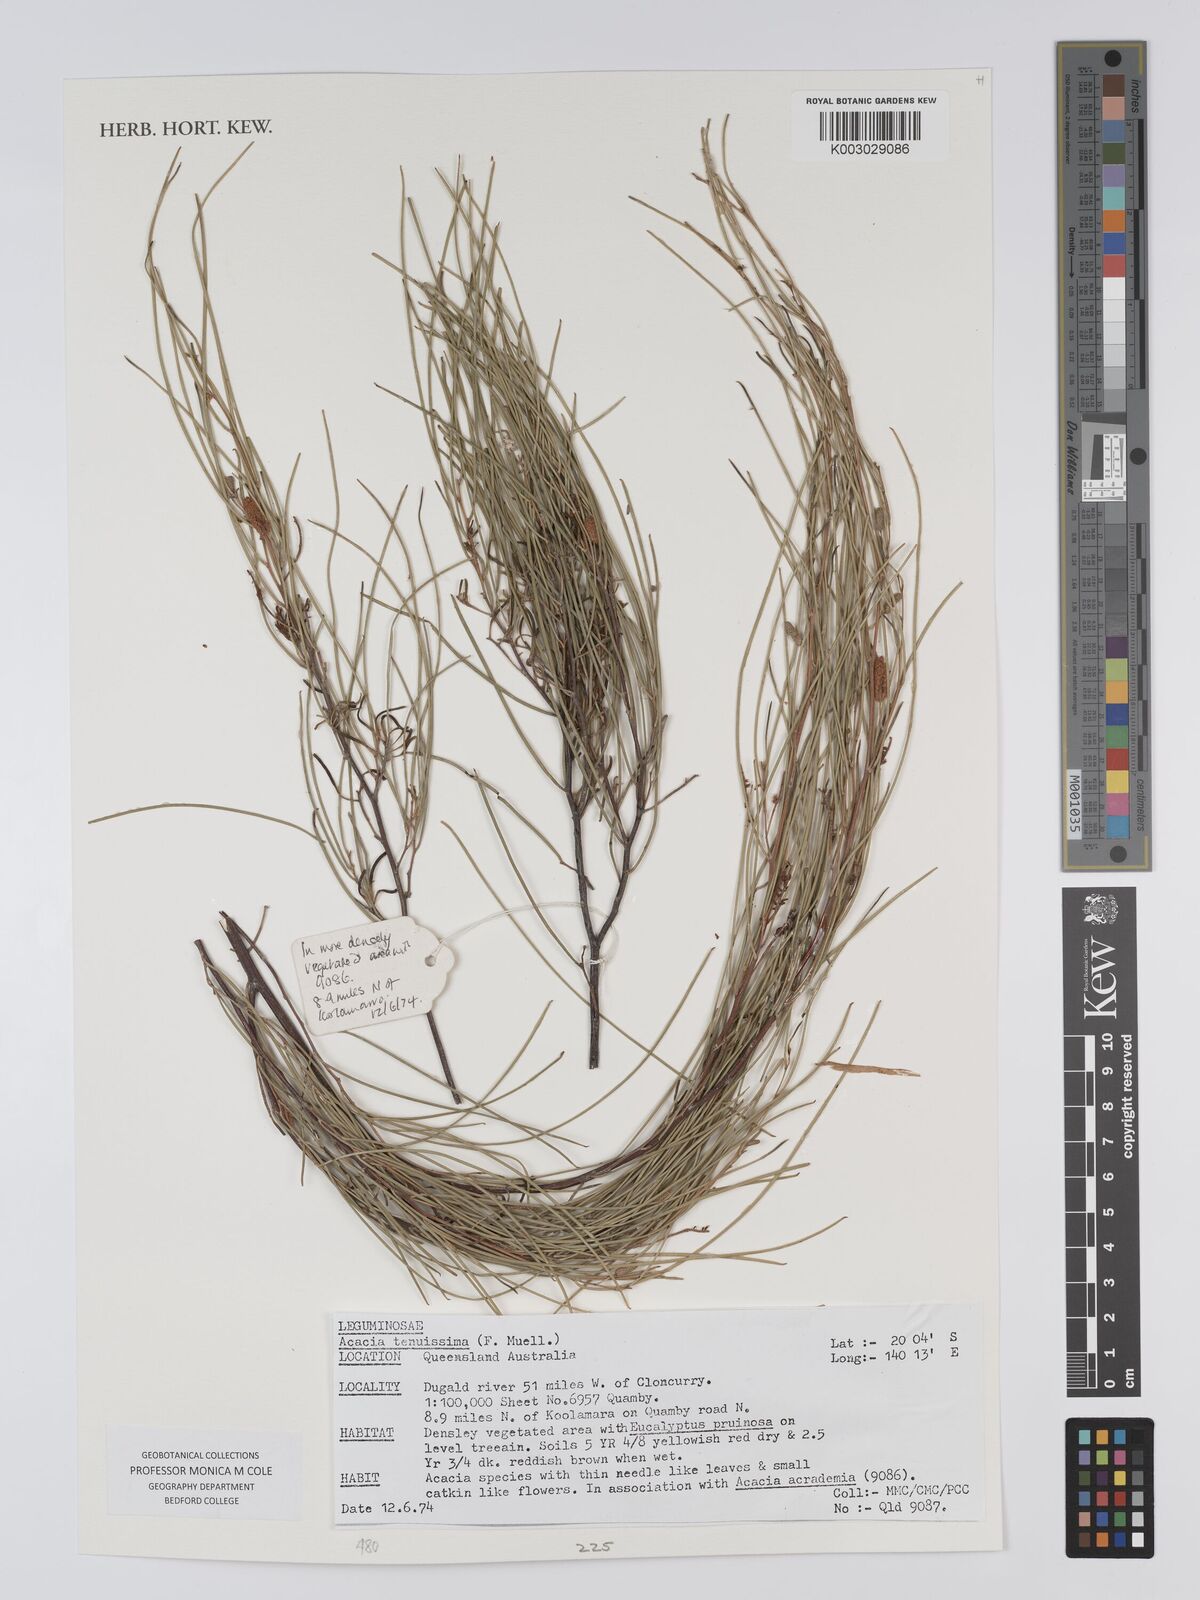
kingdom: Plantae
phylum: Tracheophyta
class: Magnoliopsida
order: Fabales
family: Fabaceae
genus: Acacia
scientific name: Acacia tenuissima
